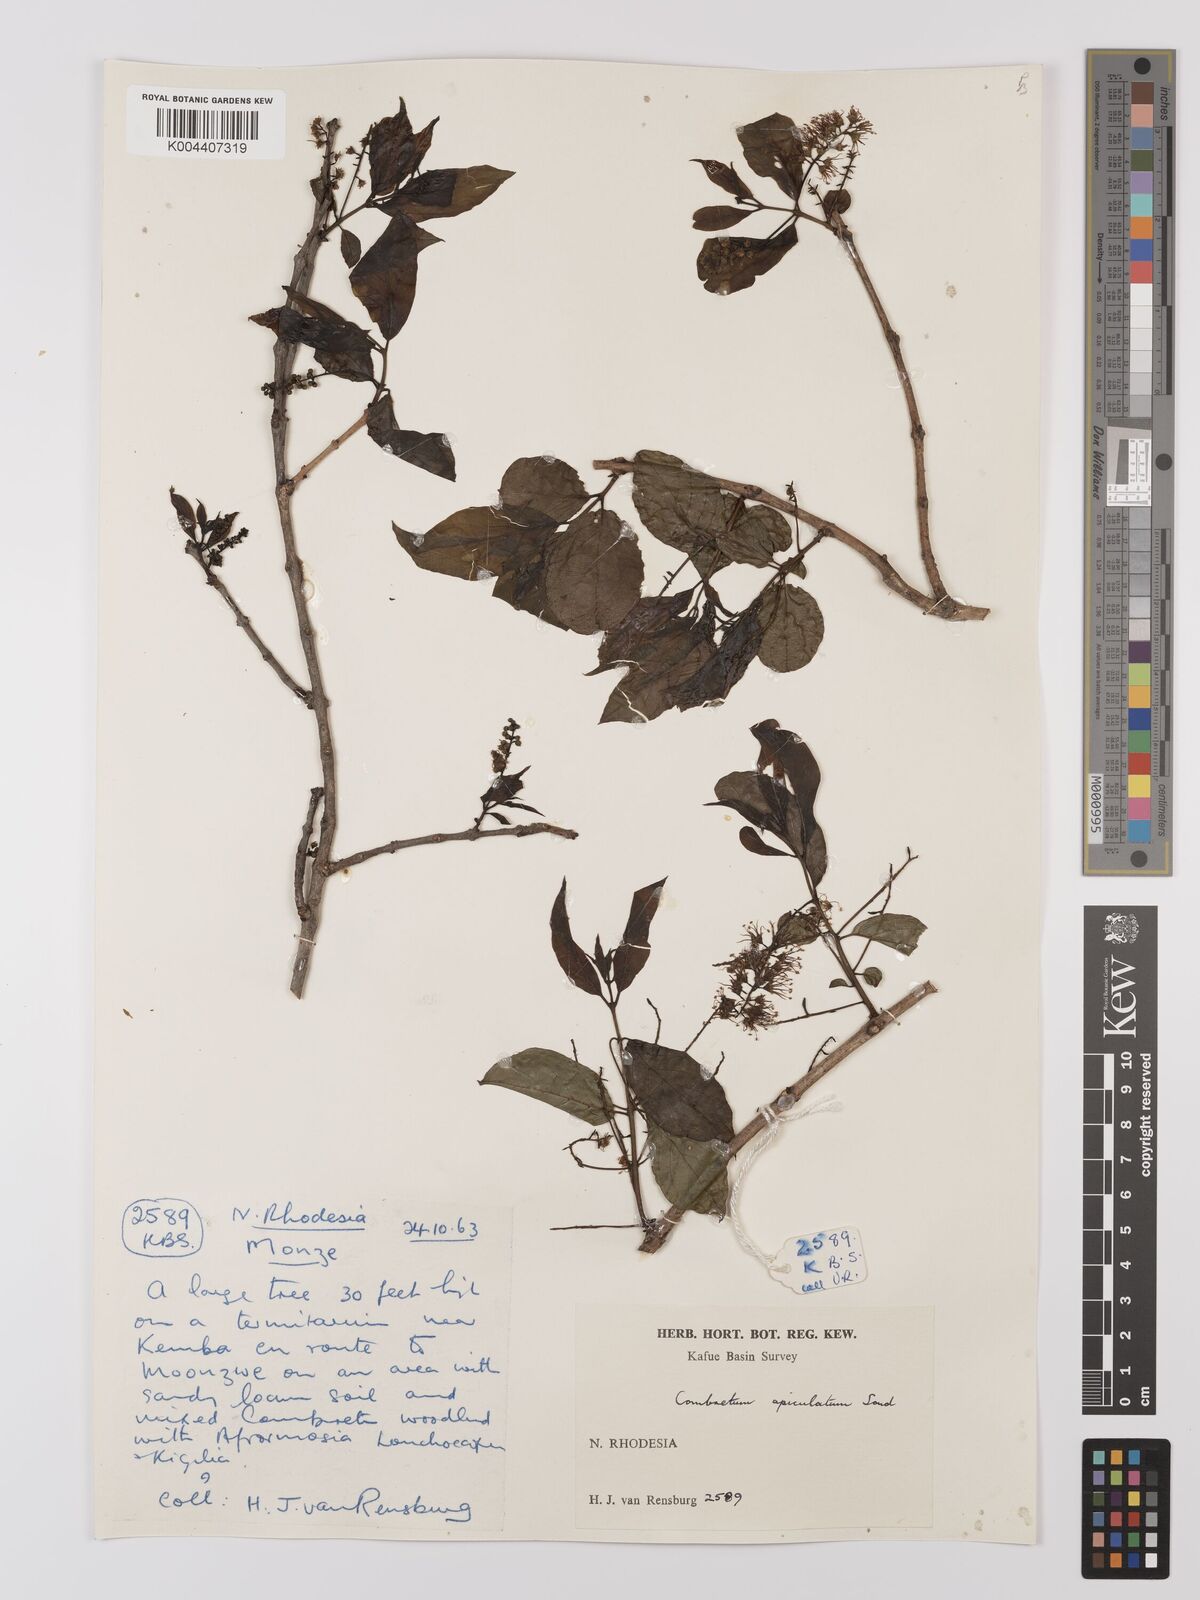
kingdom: Plantae
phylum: Tracheophyta
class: Magnoliopsida
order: Myrtales
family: Combretaceae
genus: Combretum
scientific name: Combretum apiculatum
